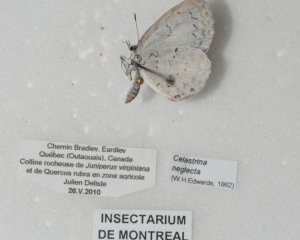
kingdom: Animalia
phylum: Arthropoda
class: Insecta
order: Lepidoptera
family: Lycaenidae
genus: Cyaniris
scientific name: Cyaniris neglecta
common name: Summer Azure
